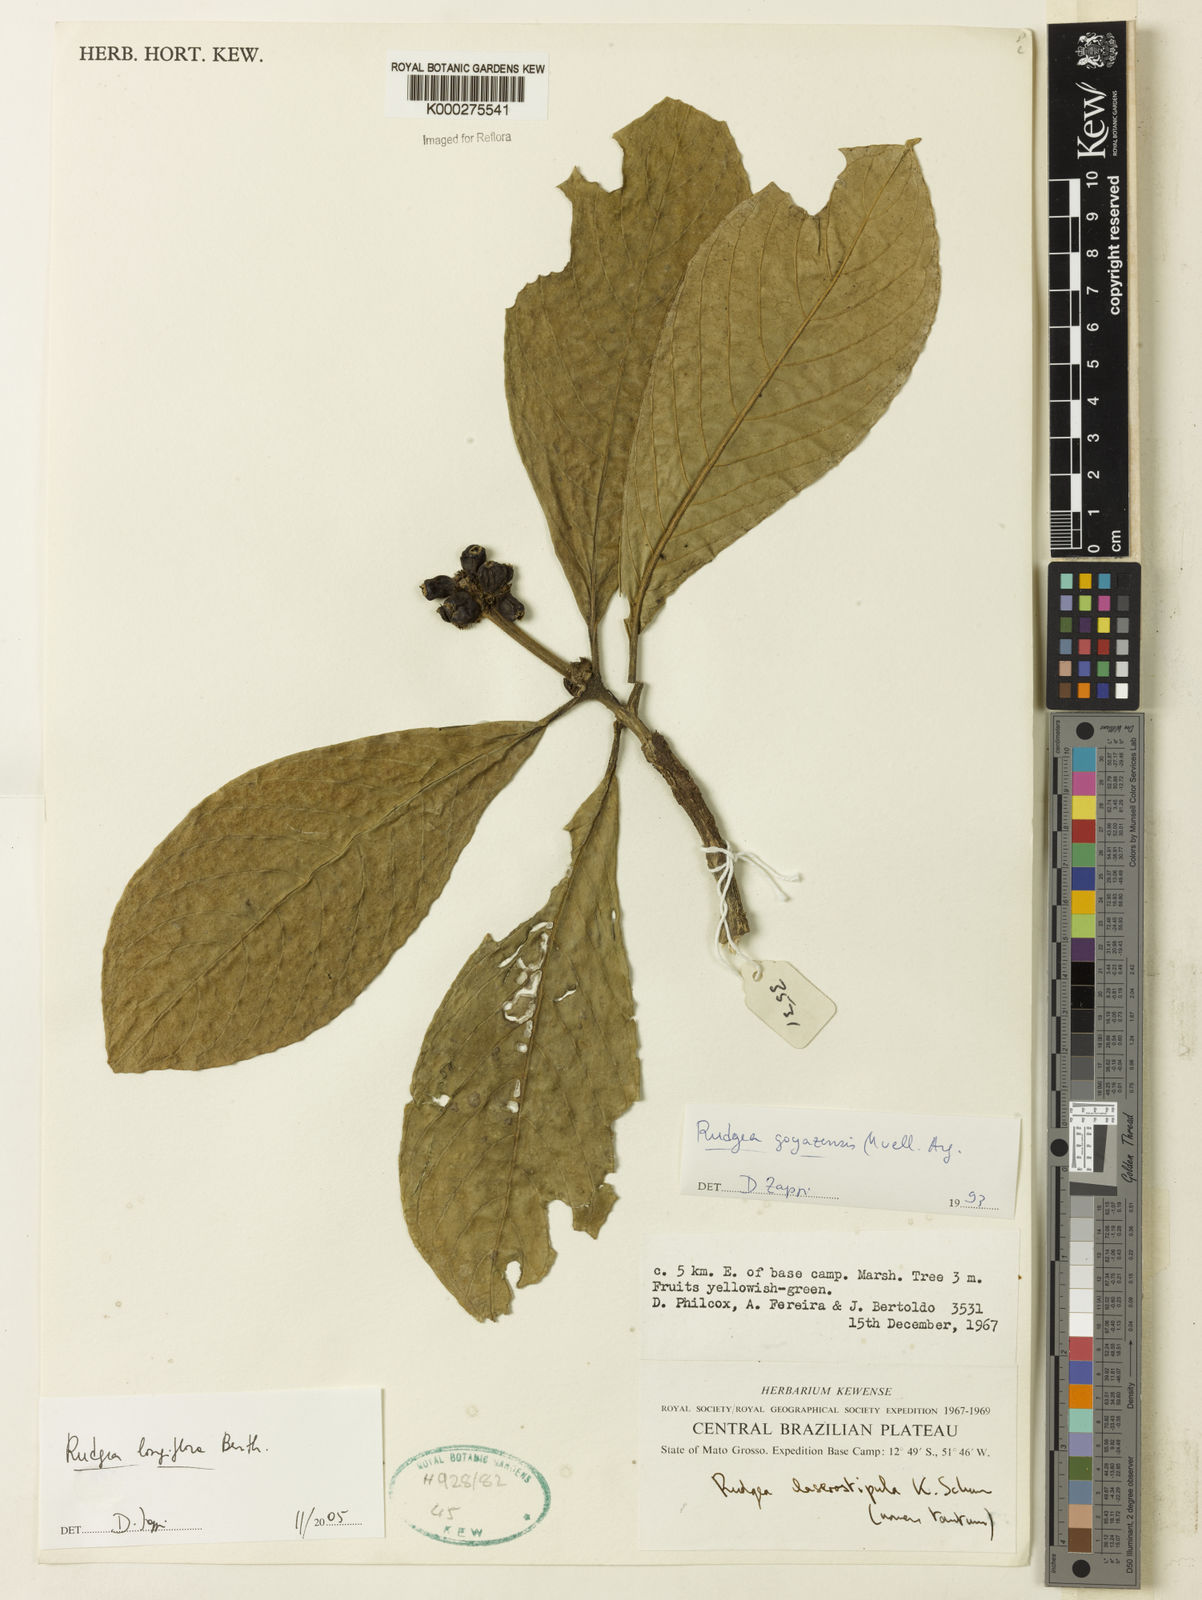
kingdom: Plantae
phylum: Tracheophyta
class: Magnoliopsida
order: Gentianales
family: Rubiaceae
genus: Rudgea
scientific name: Rudgea longiflora
